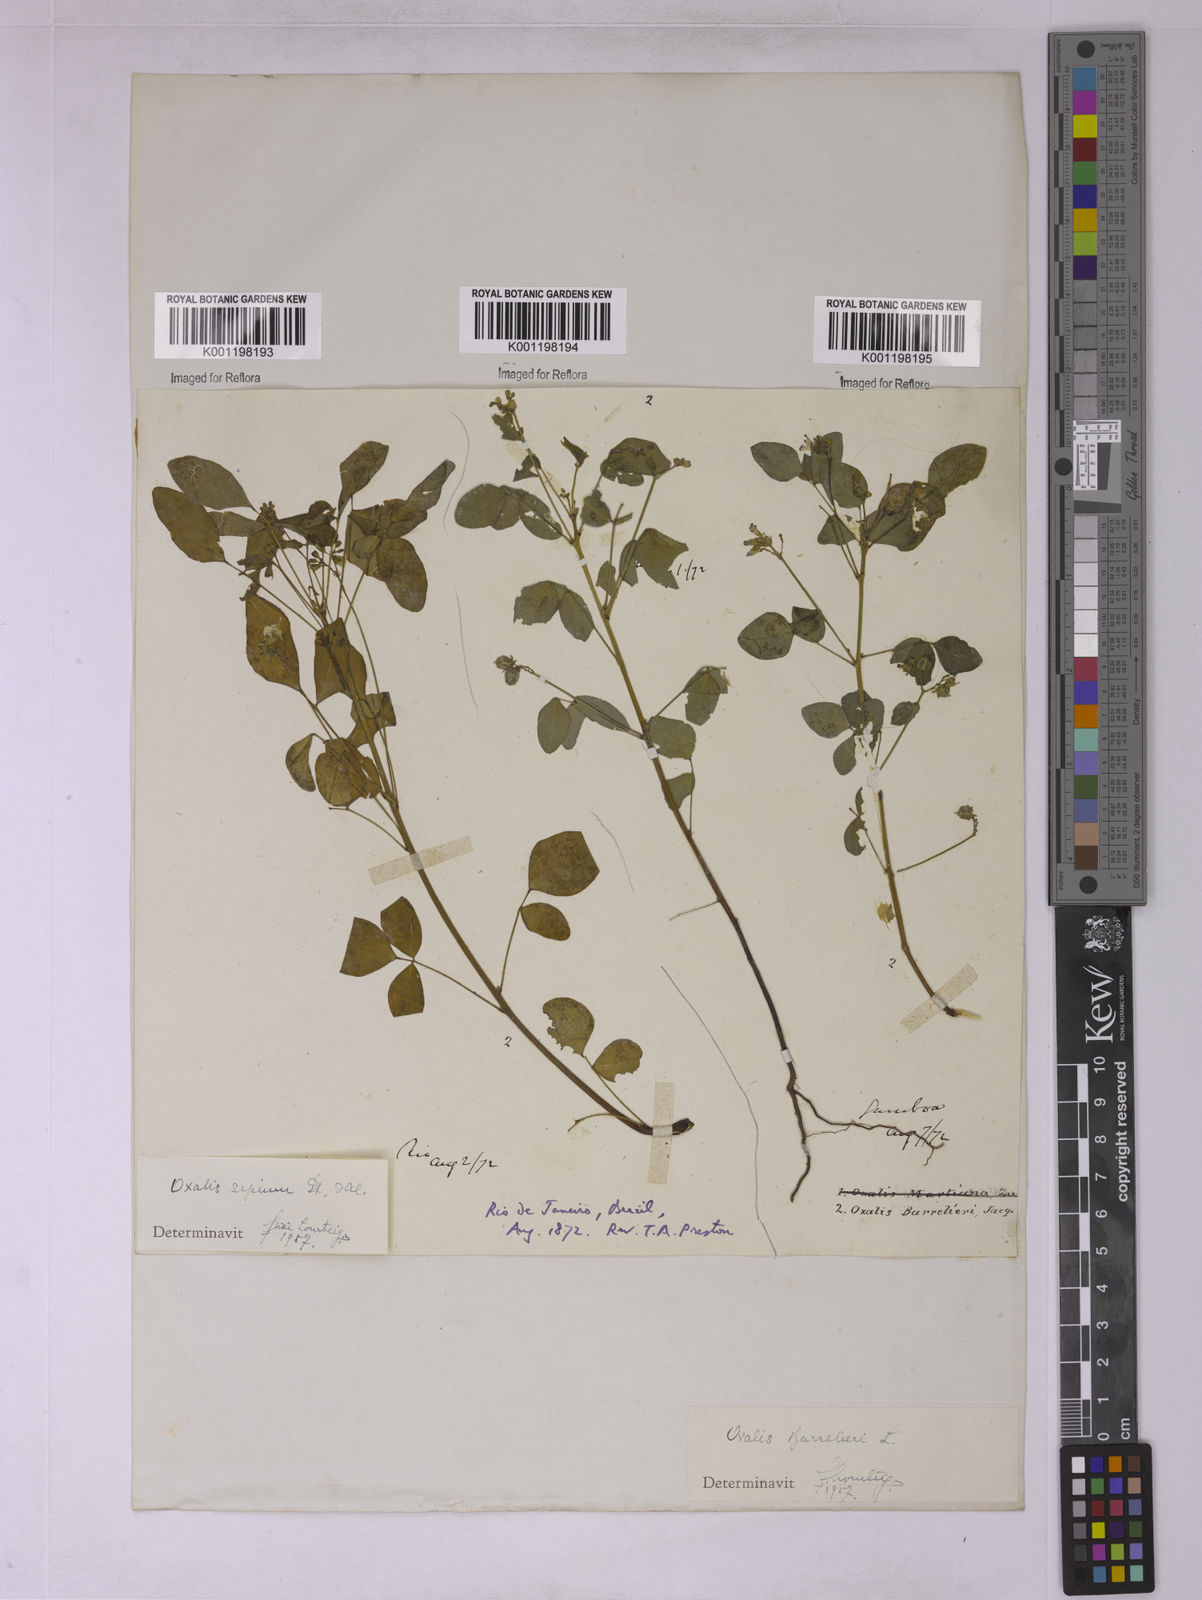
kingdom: Plantae
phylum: Tracheophyta
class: Magnoliopsida
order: Oxalidales
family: Oxalidaceae
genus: Oxalis
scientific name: Oxalis sepium
